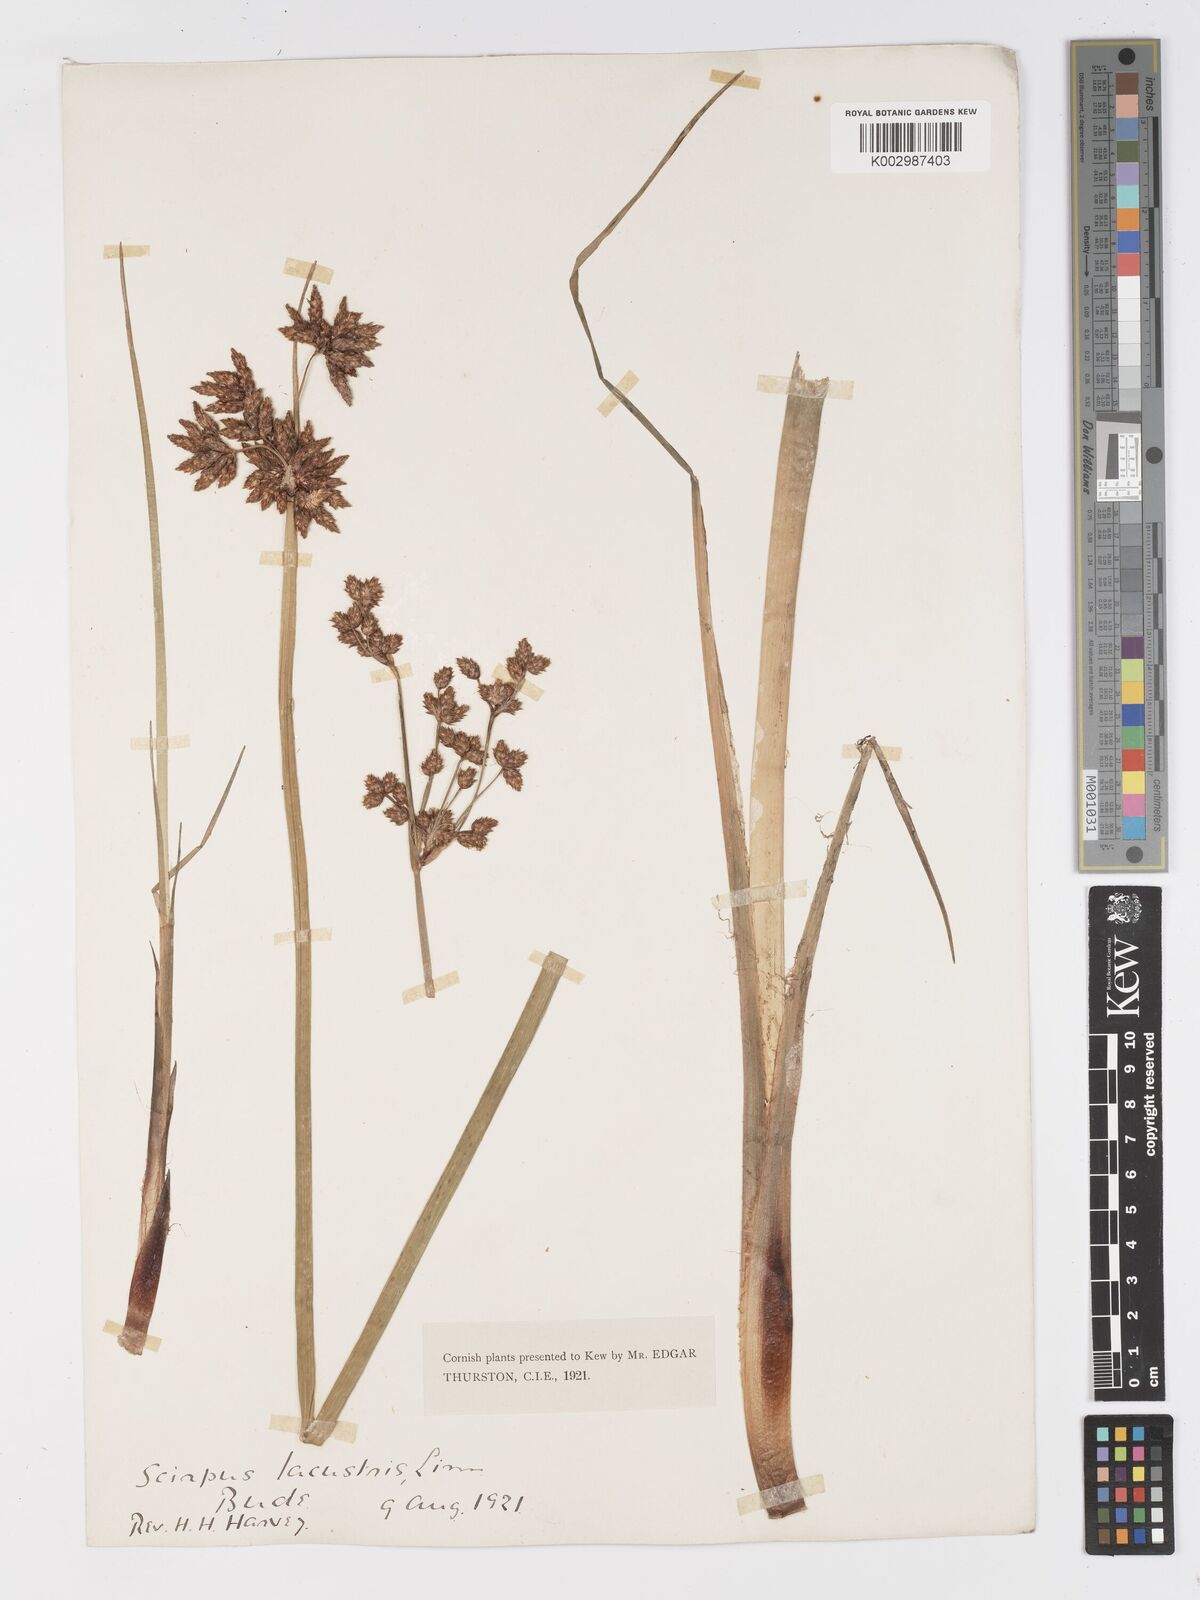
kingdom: Plantae
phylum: Tracheophyta
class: Liliopsida
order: Poales
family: Cyperaceae
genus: Schoenoplectus
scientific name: Schoenoplectus lacustris
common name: Common club-rush
